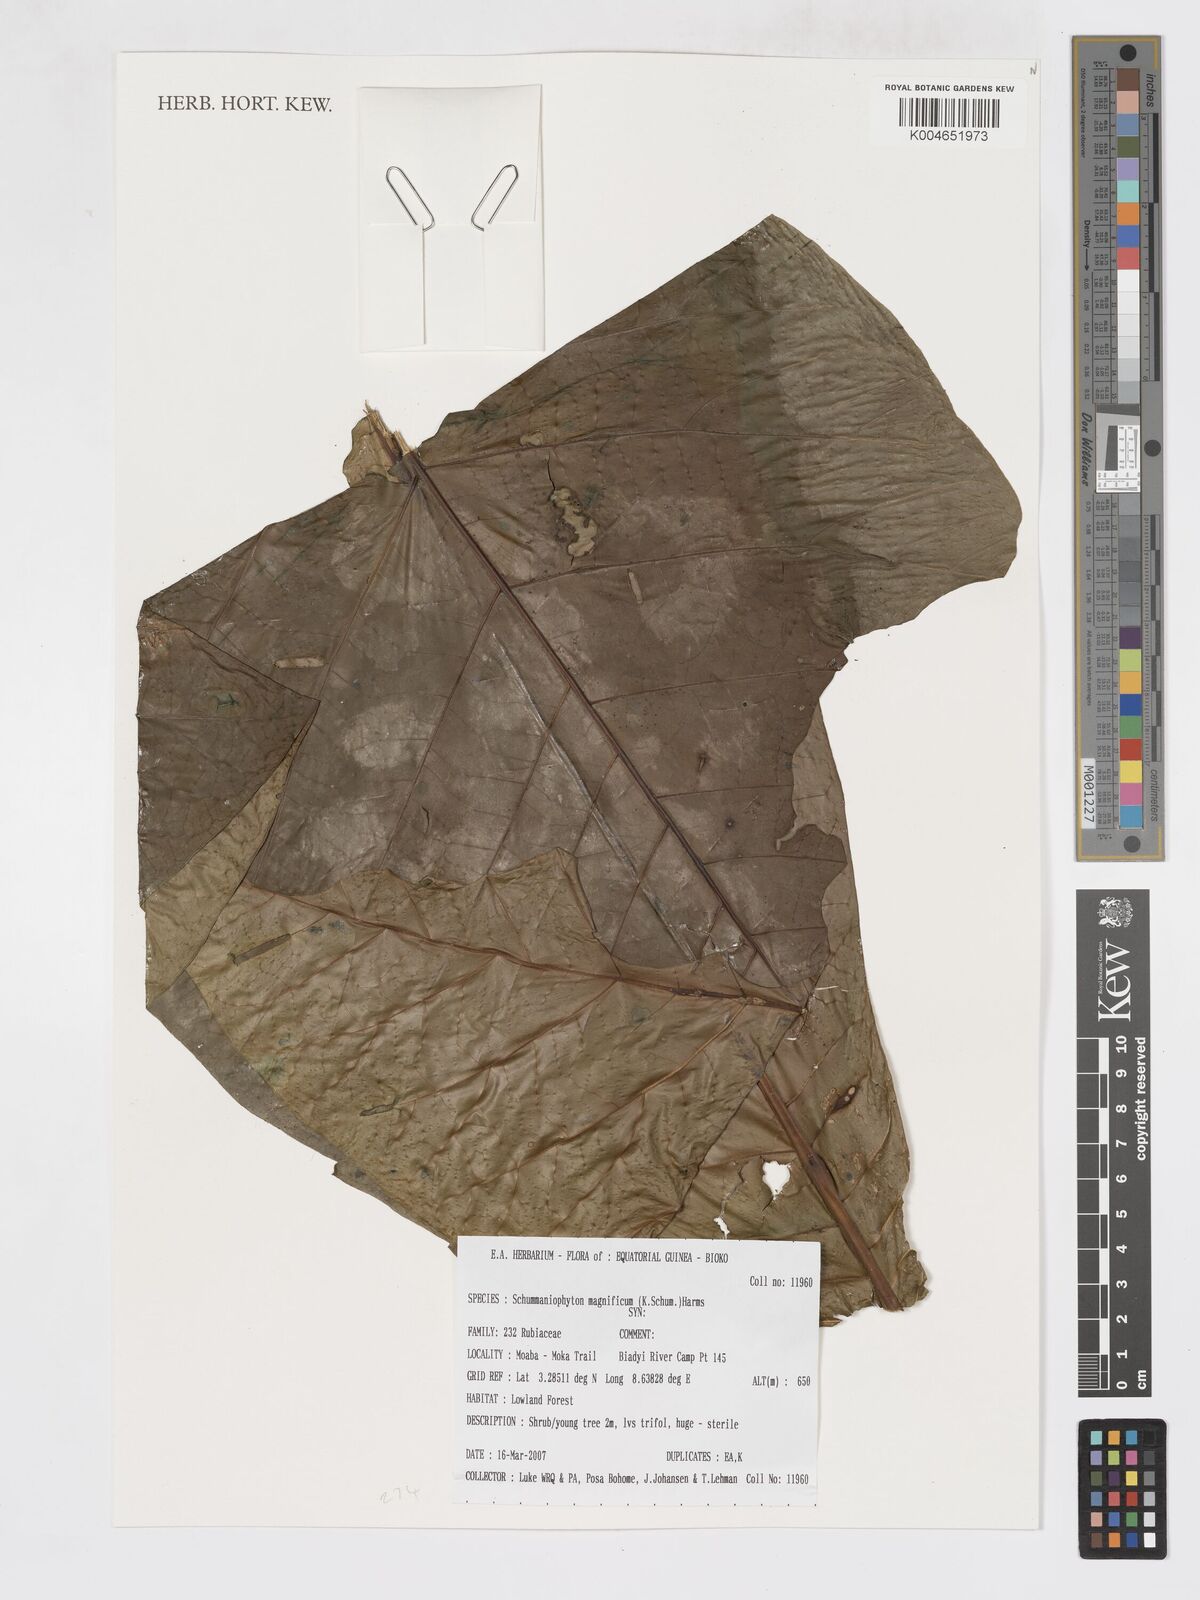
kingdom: Plantae
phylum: Tracheophyta
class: Magnoliopsida
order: Gentianales
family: Rubiaceae
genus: Schumanniophyton
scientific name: Schumanniophyton magnificum
